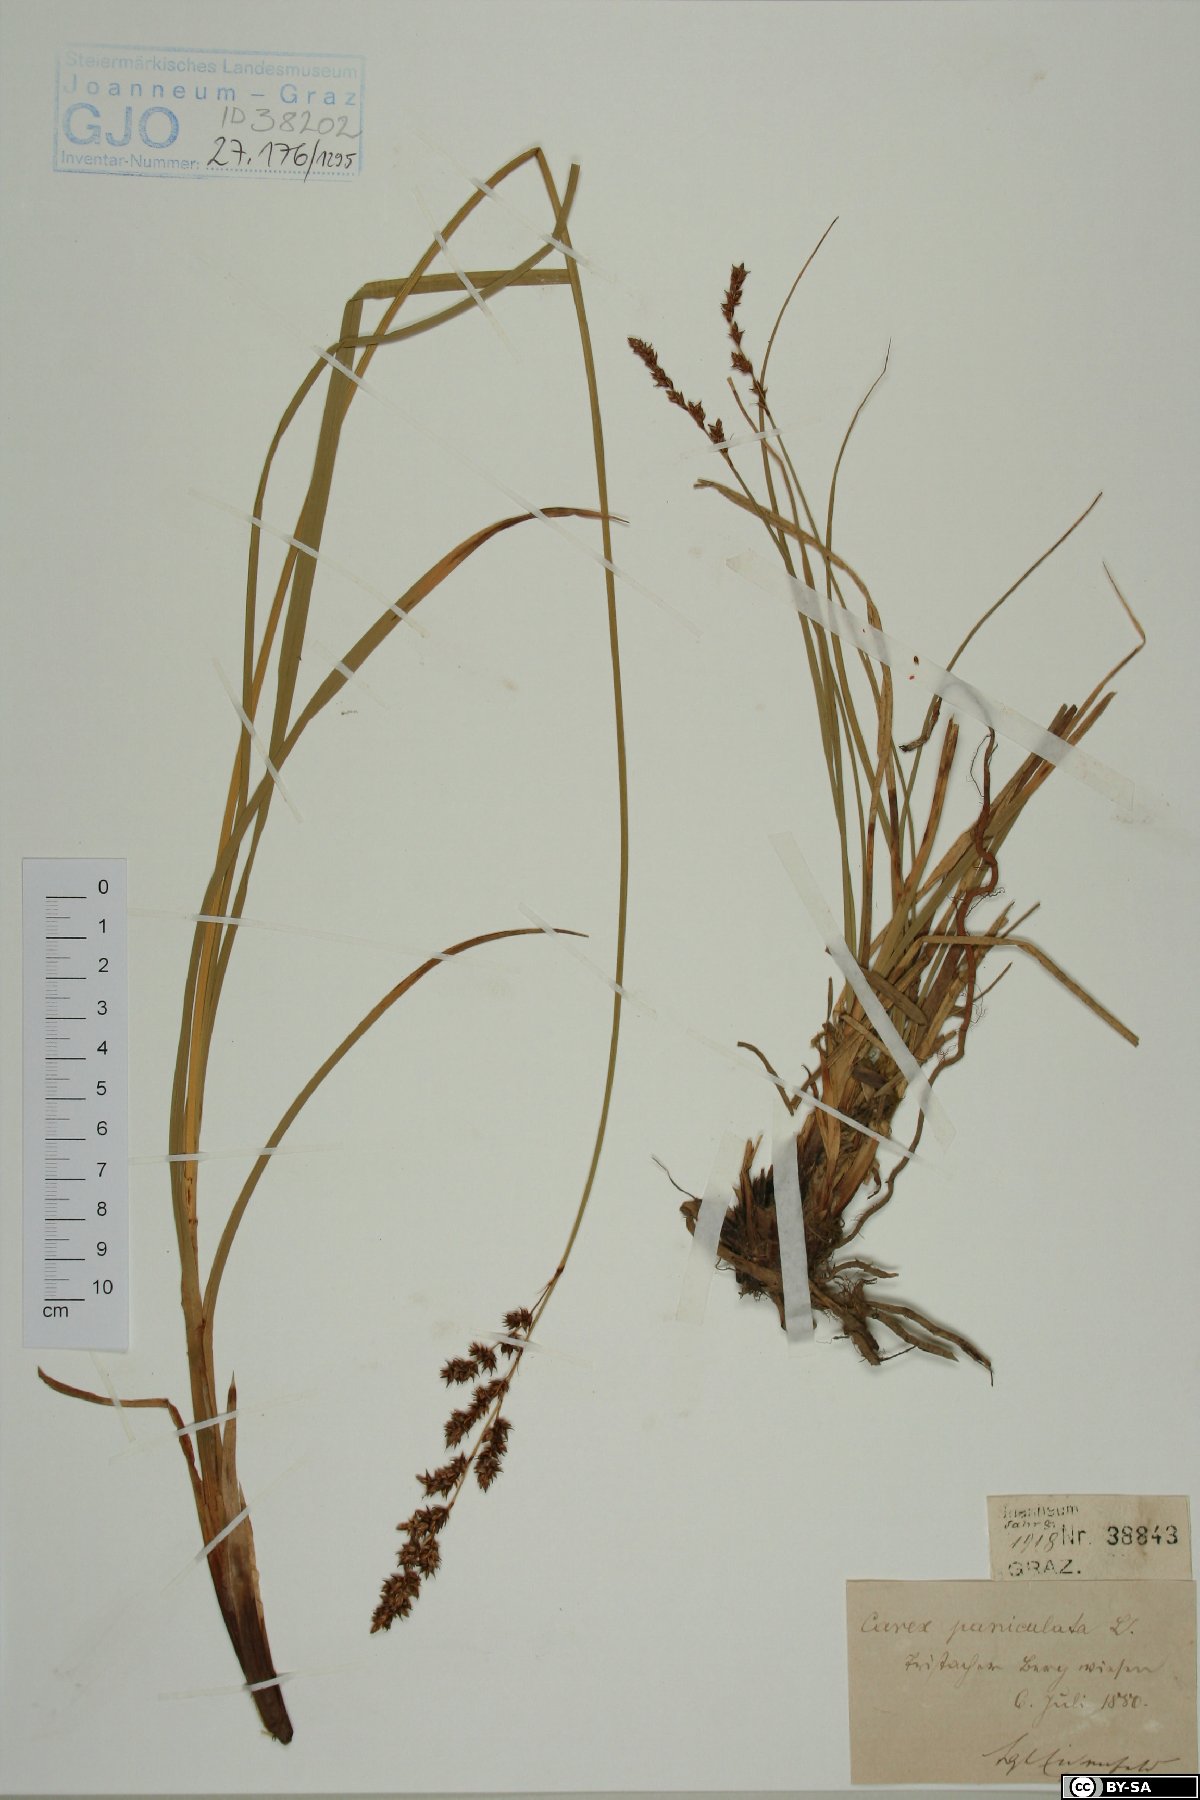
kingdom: Plantae
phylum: Tracheophyta
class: Liliopsida
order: Poales
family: Cyperaceae
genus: Carex
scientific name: Carex paniculata
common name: Greater tussock-sedge
